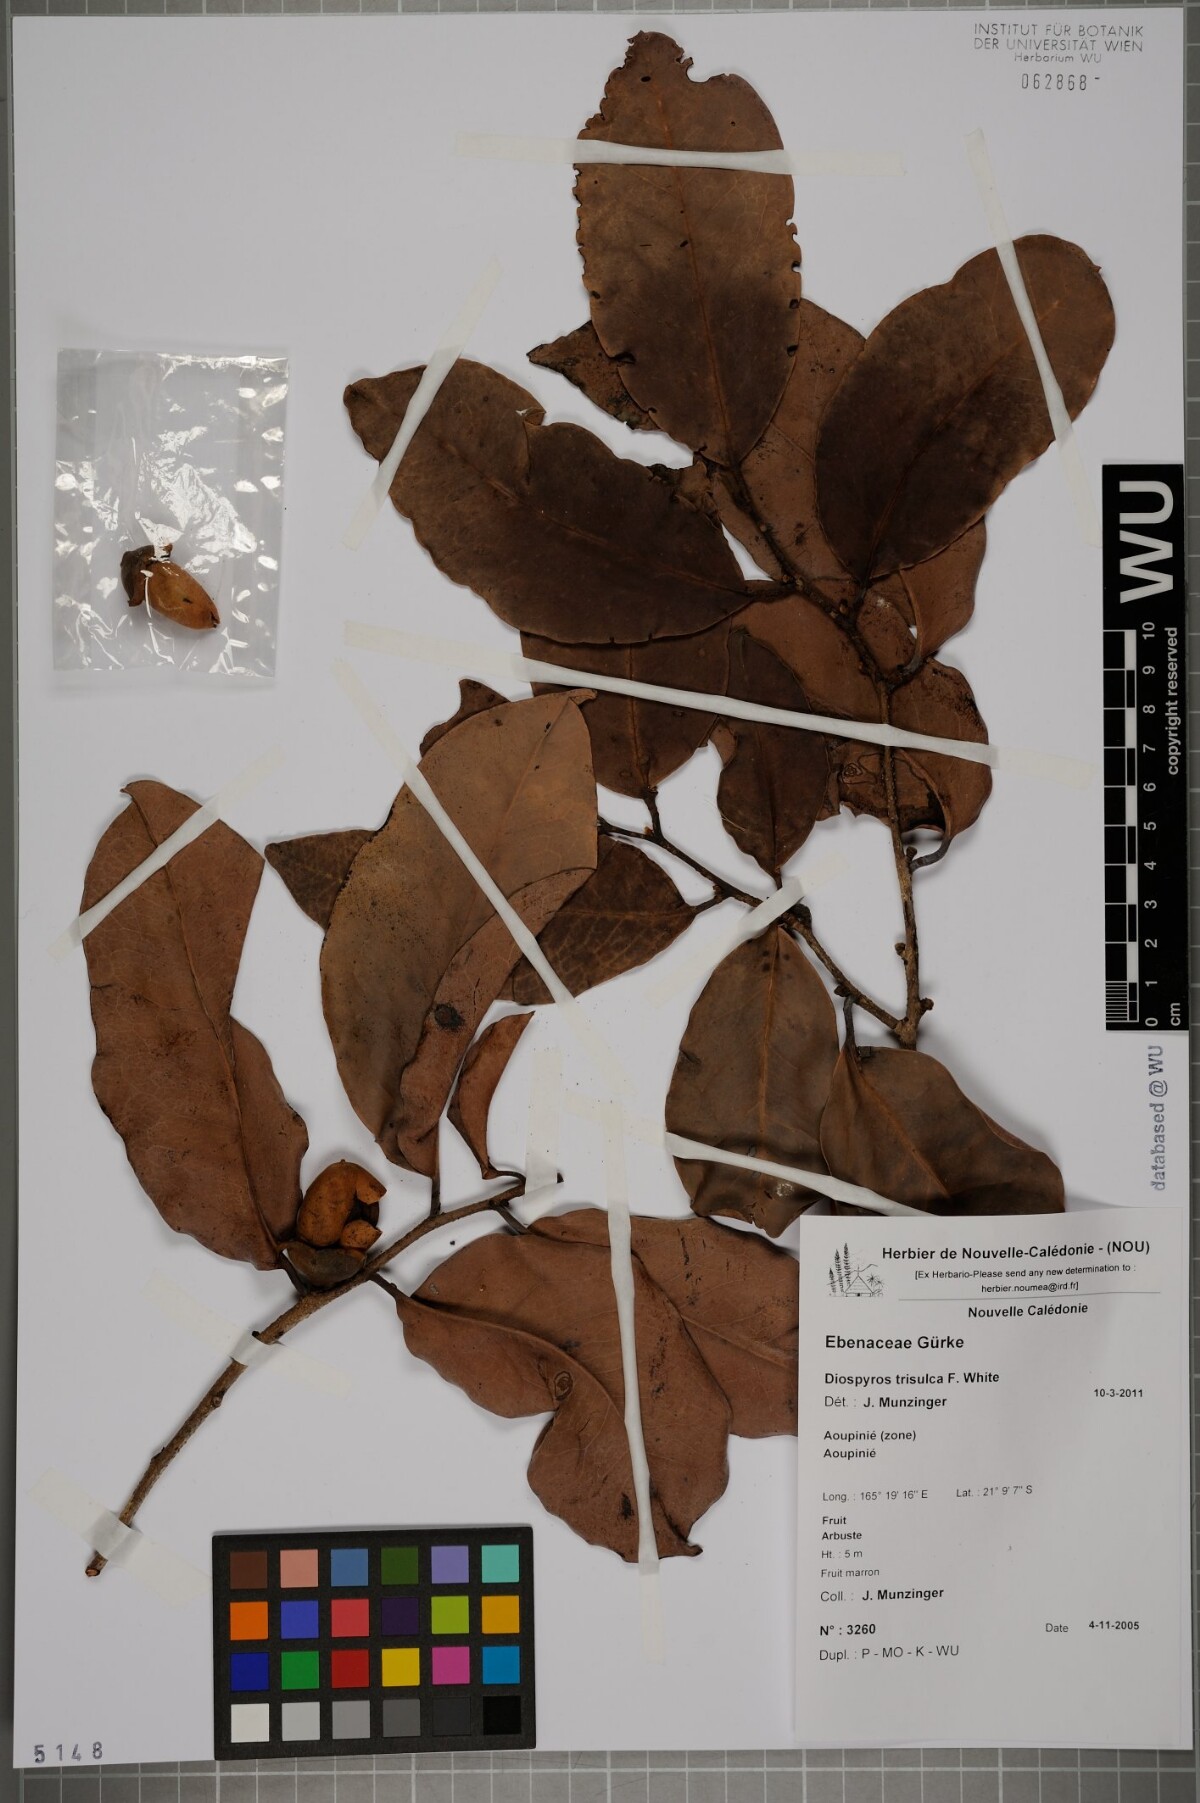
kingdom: Plantae
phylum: Tracheophyta
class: Magnoliopsida
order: Ericales
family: Ebenaceae
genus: Diospyros
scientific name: Diospyros trisulca
